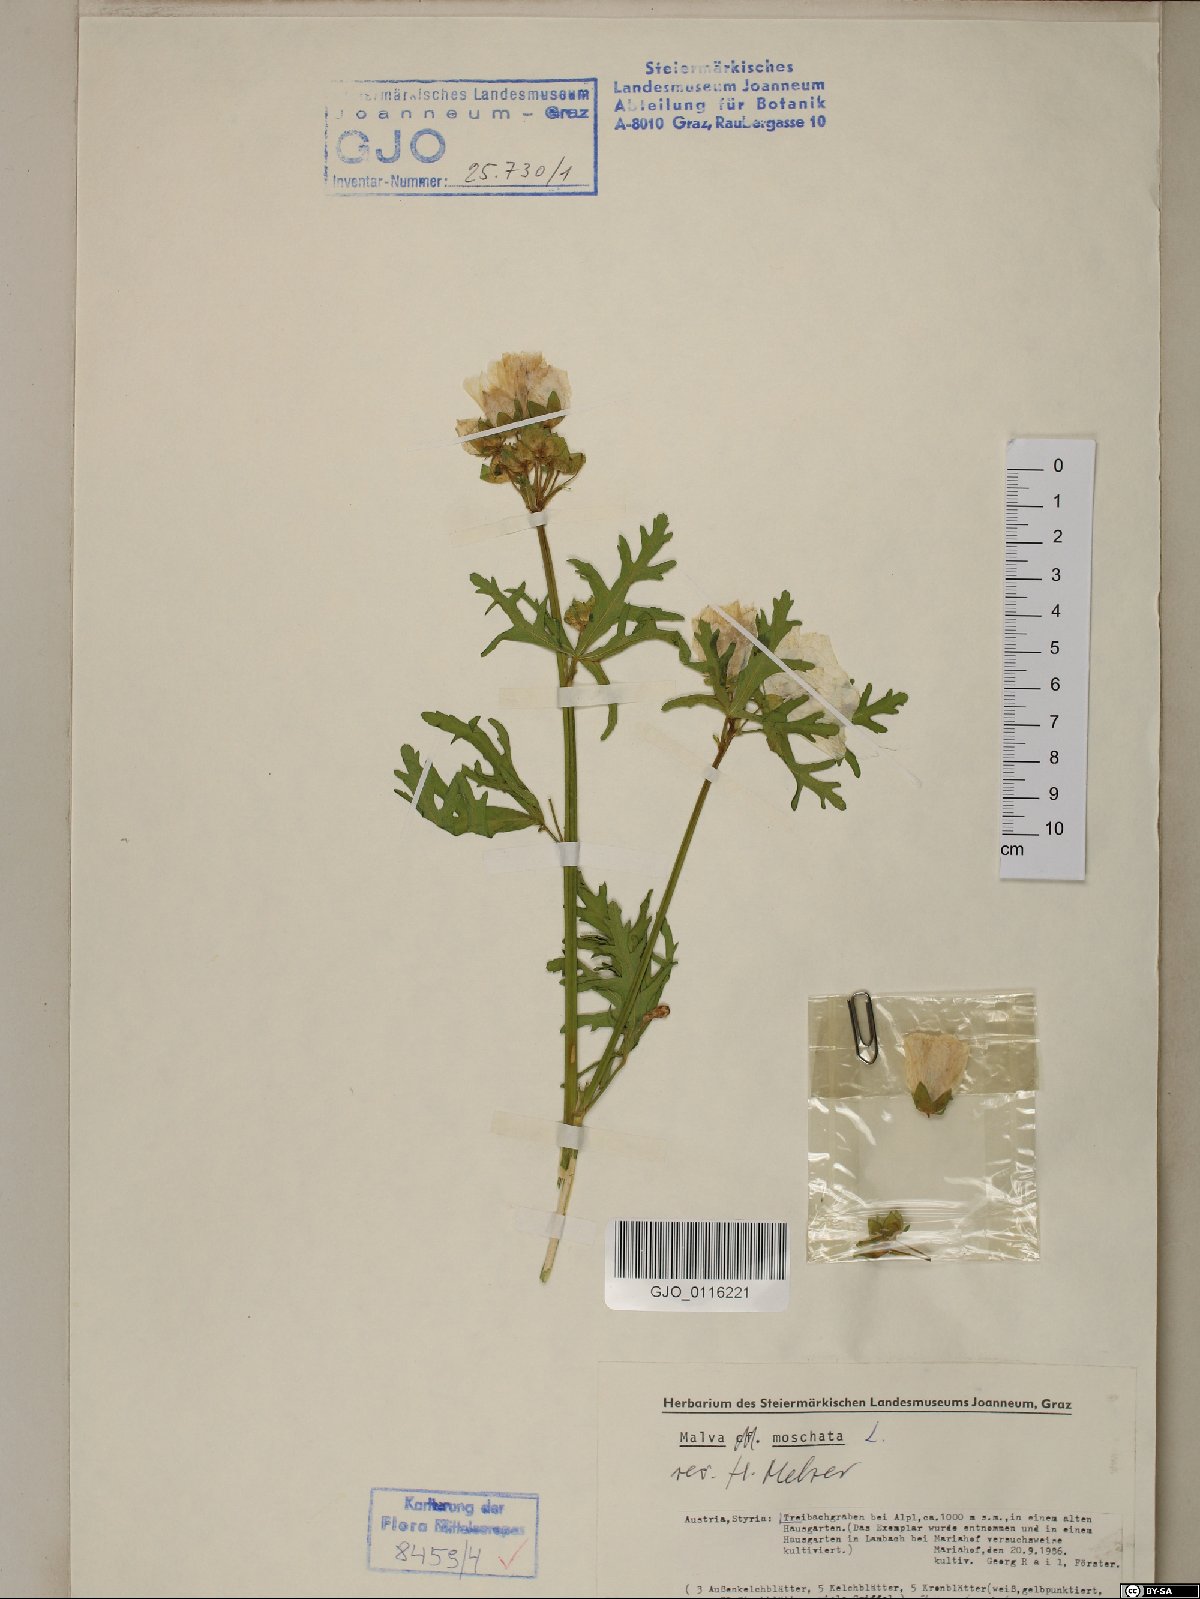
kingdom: Plantae
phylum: Tracheophyta
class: Magnoliopsida
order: Malvales
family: Malvaceae
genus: Malva
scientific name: Malva moschata
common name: Musk mallow
